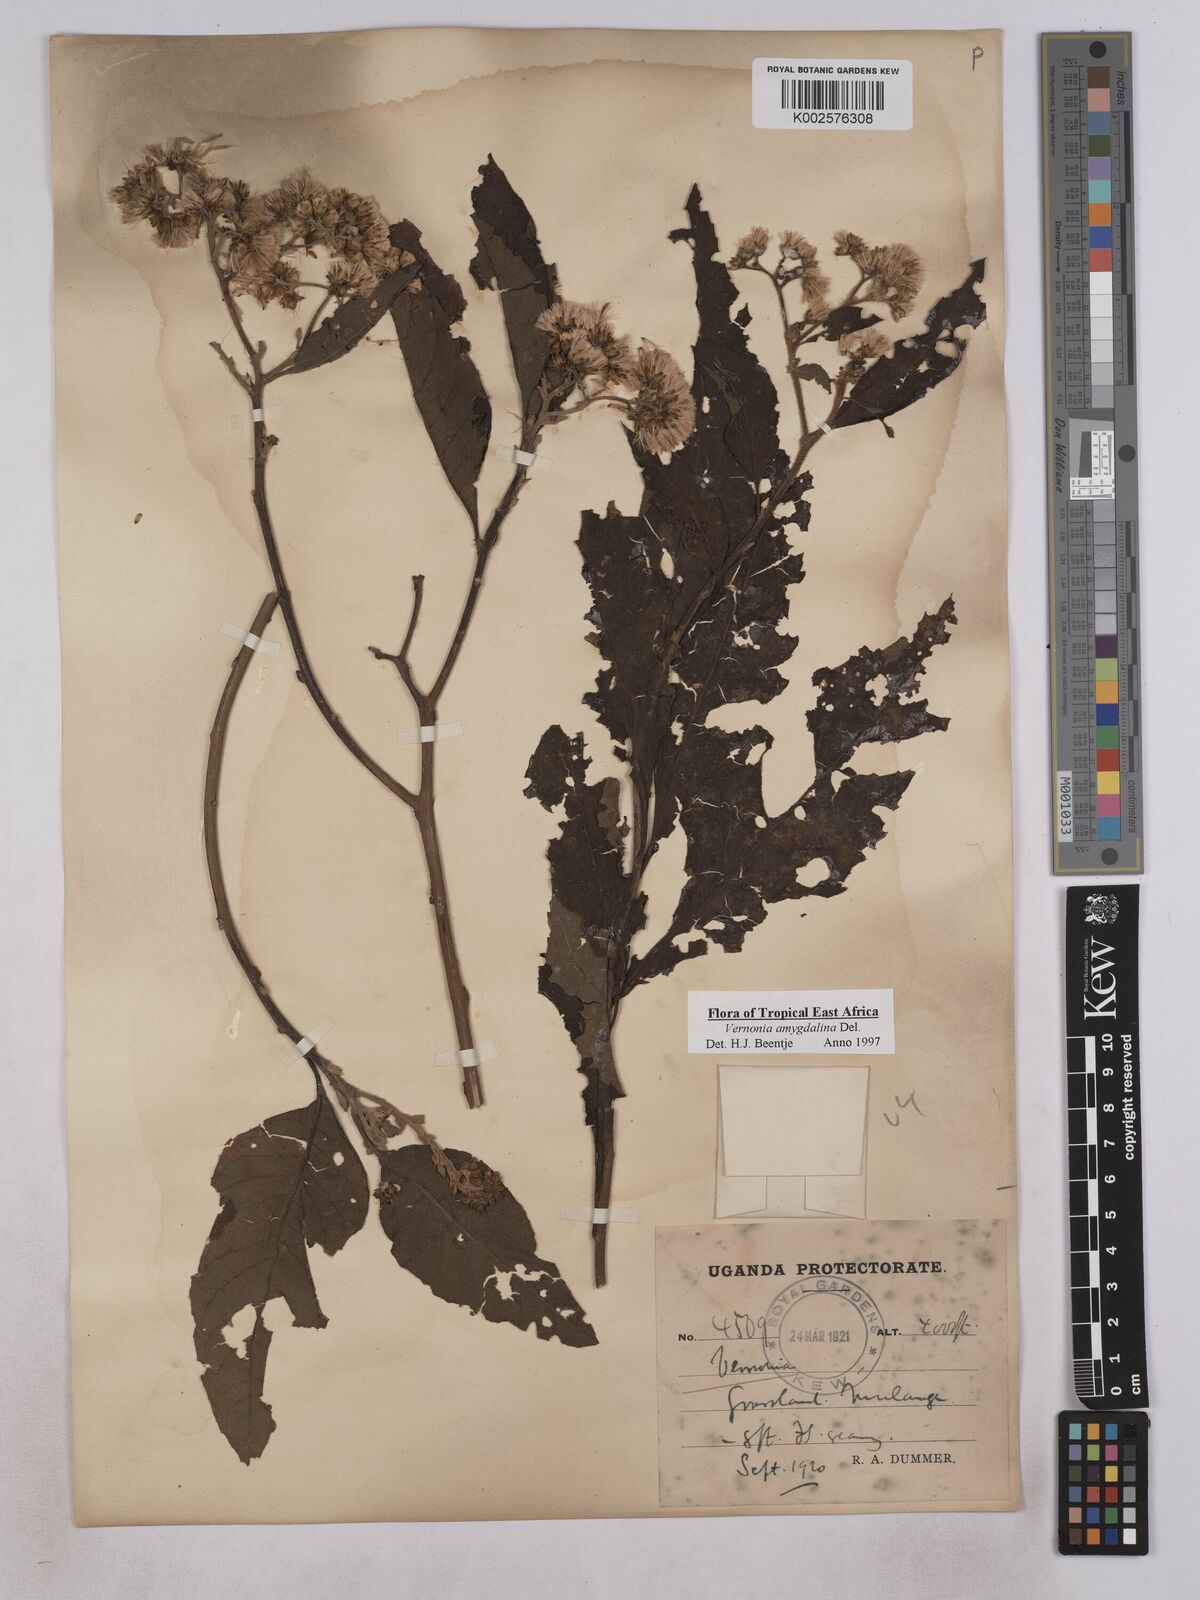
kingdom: Plantae
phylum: Tracheophyta
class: Magnoliopsida
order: Asterales
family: Asteraceae
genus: Gymnanthemum
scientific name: Gymnanthemum amygdalinum
